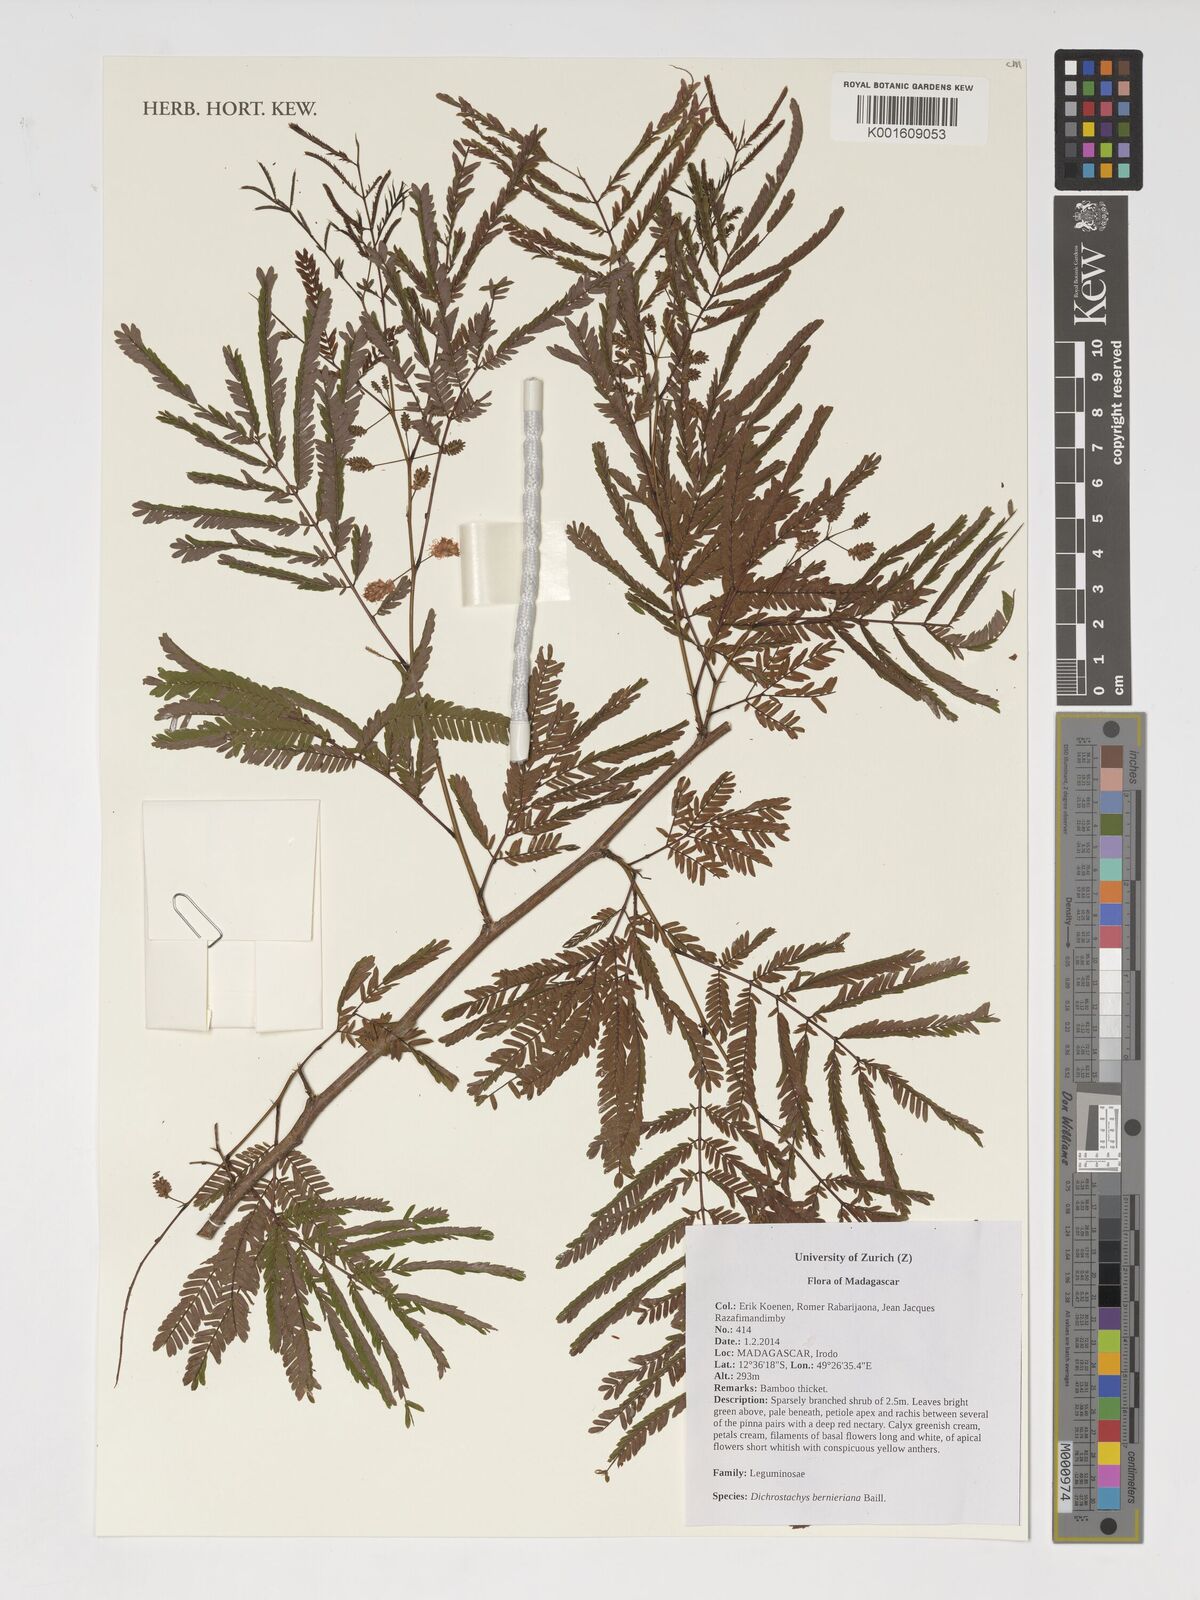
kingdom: Plantae
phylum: Tracheophyta
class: Magnoliopsida
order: Fabales
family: Fabaceae
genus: Dichrostachys
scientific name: Dichrostachys bernieriana
